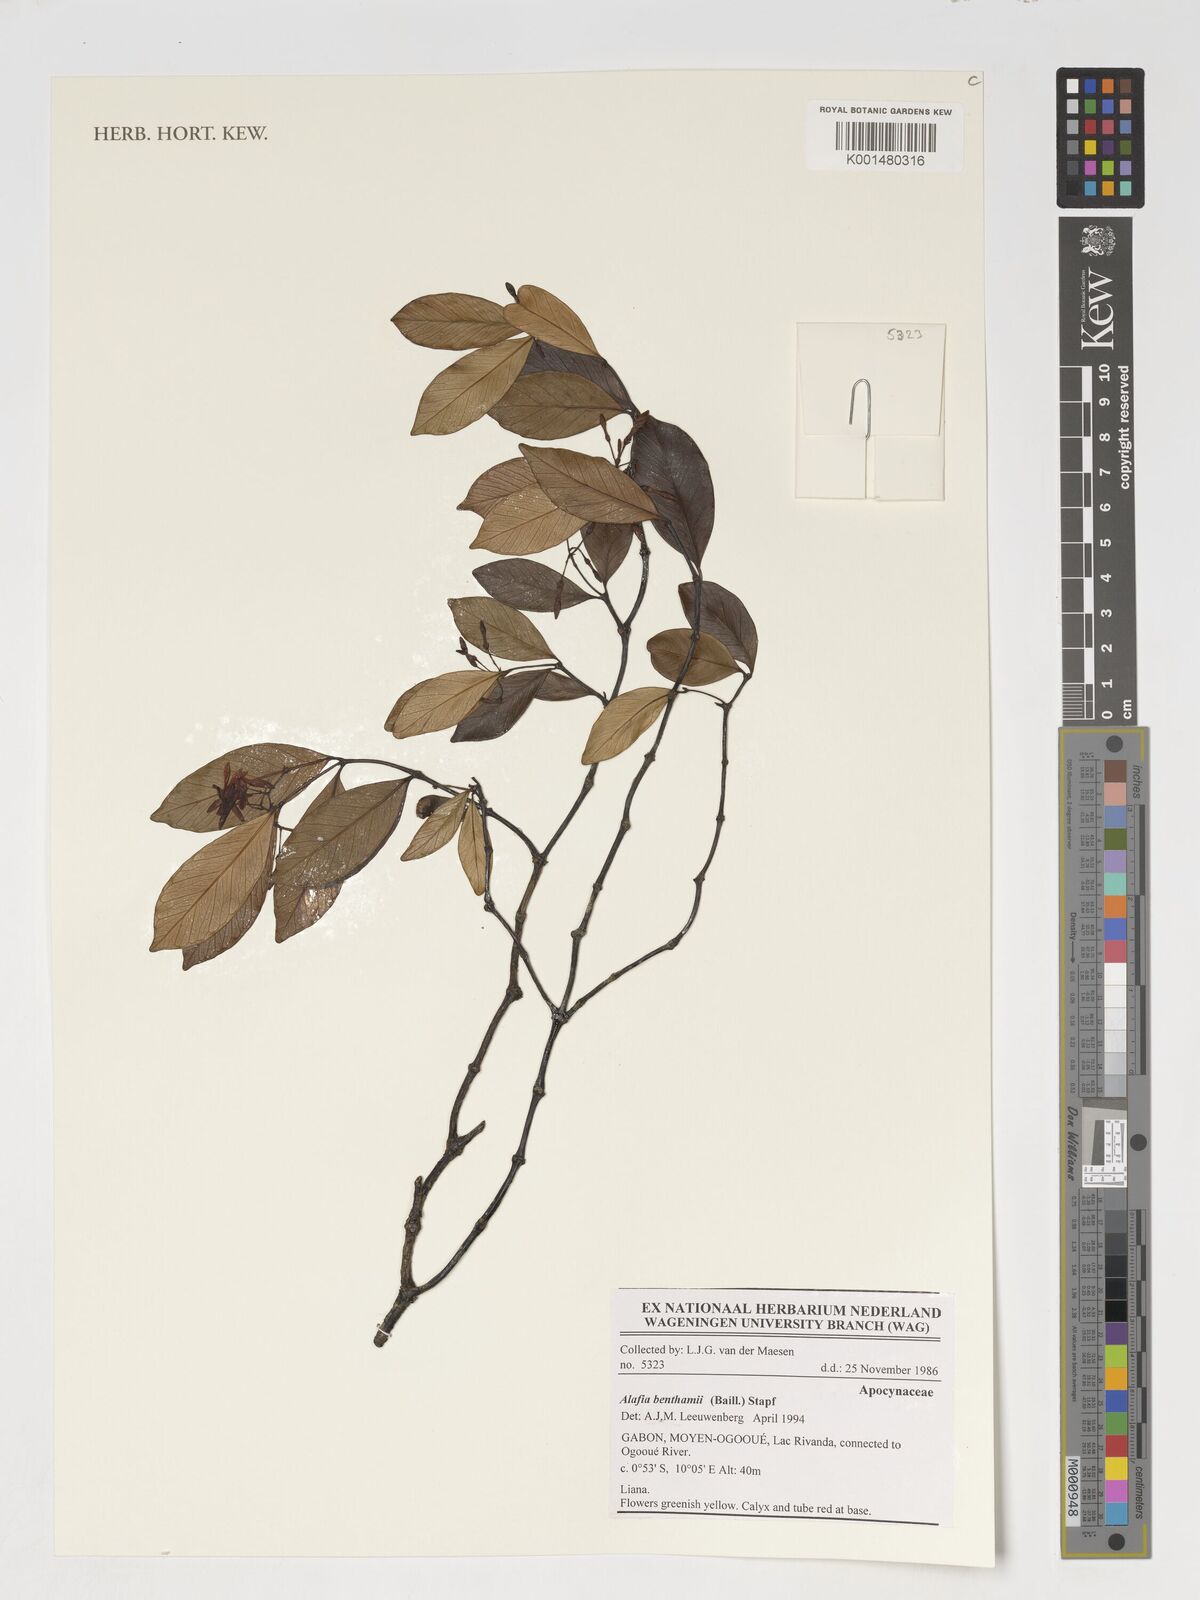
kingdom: Plantae
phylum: Tracheophyta
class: Magnoliopsida
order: Gentianales
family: Apocynaceae
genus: Alafia
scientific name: Alafia benthamii
